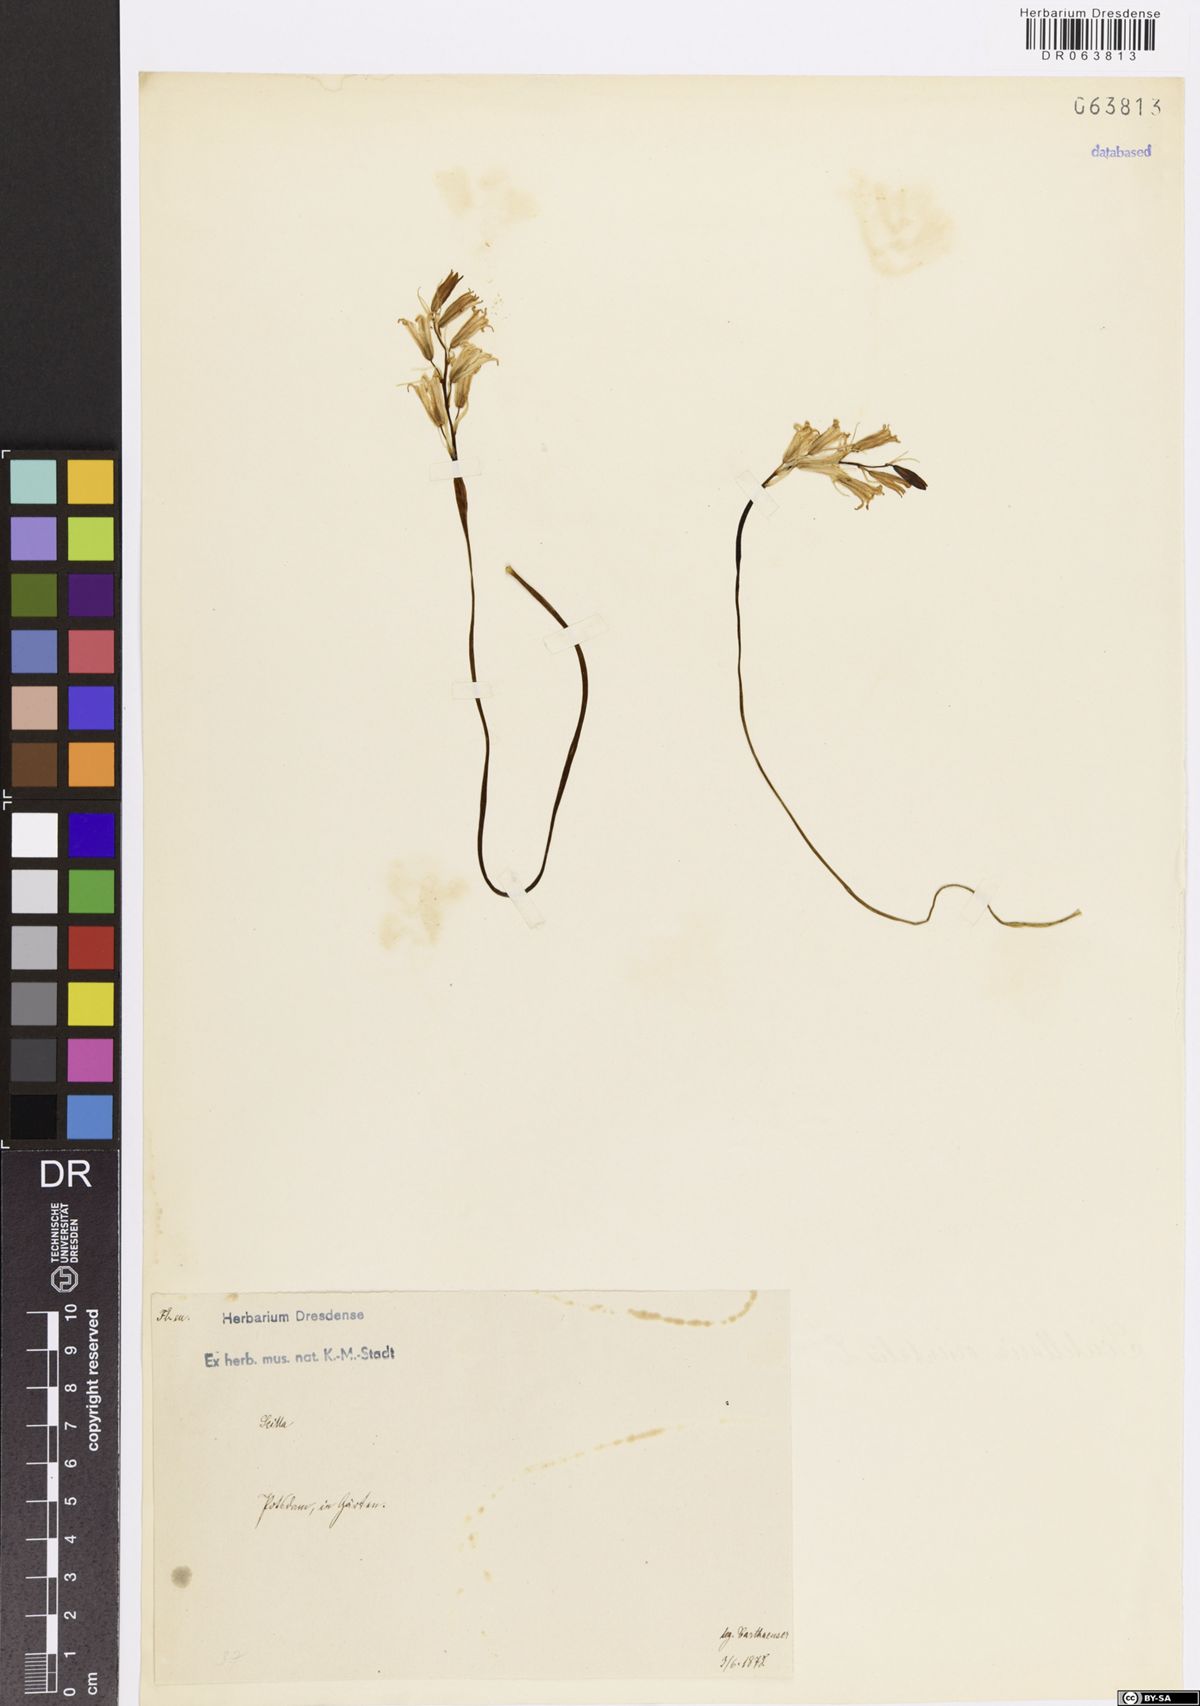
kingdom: Plantae
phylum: Tracheophyta
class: Liliopsida
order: Asparagales
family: Asparagaceae
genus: Scilla
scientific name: Scilla
